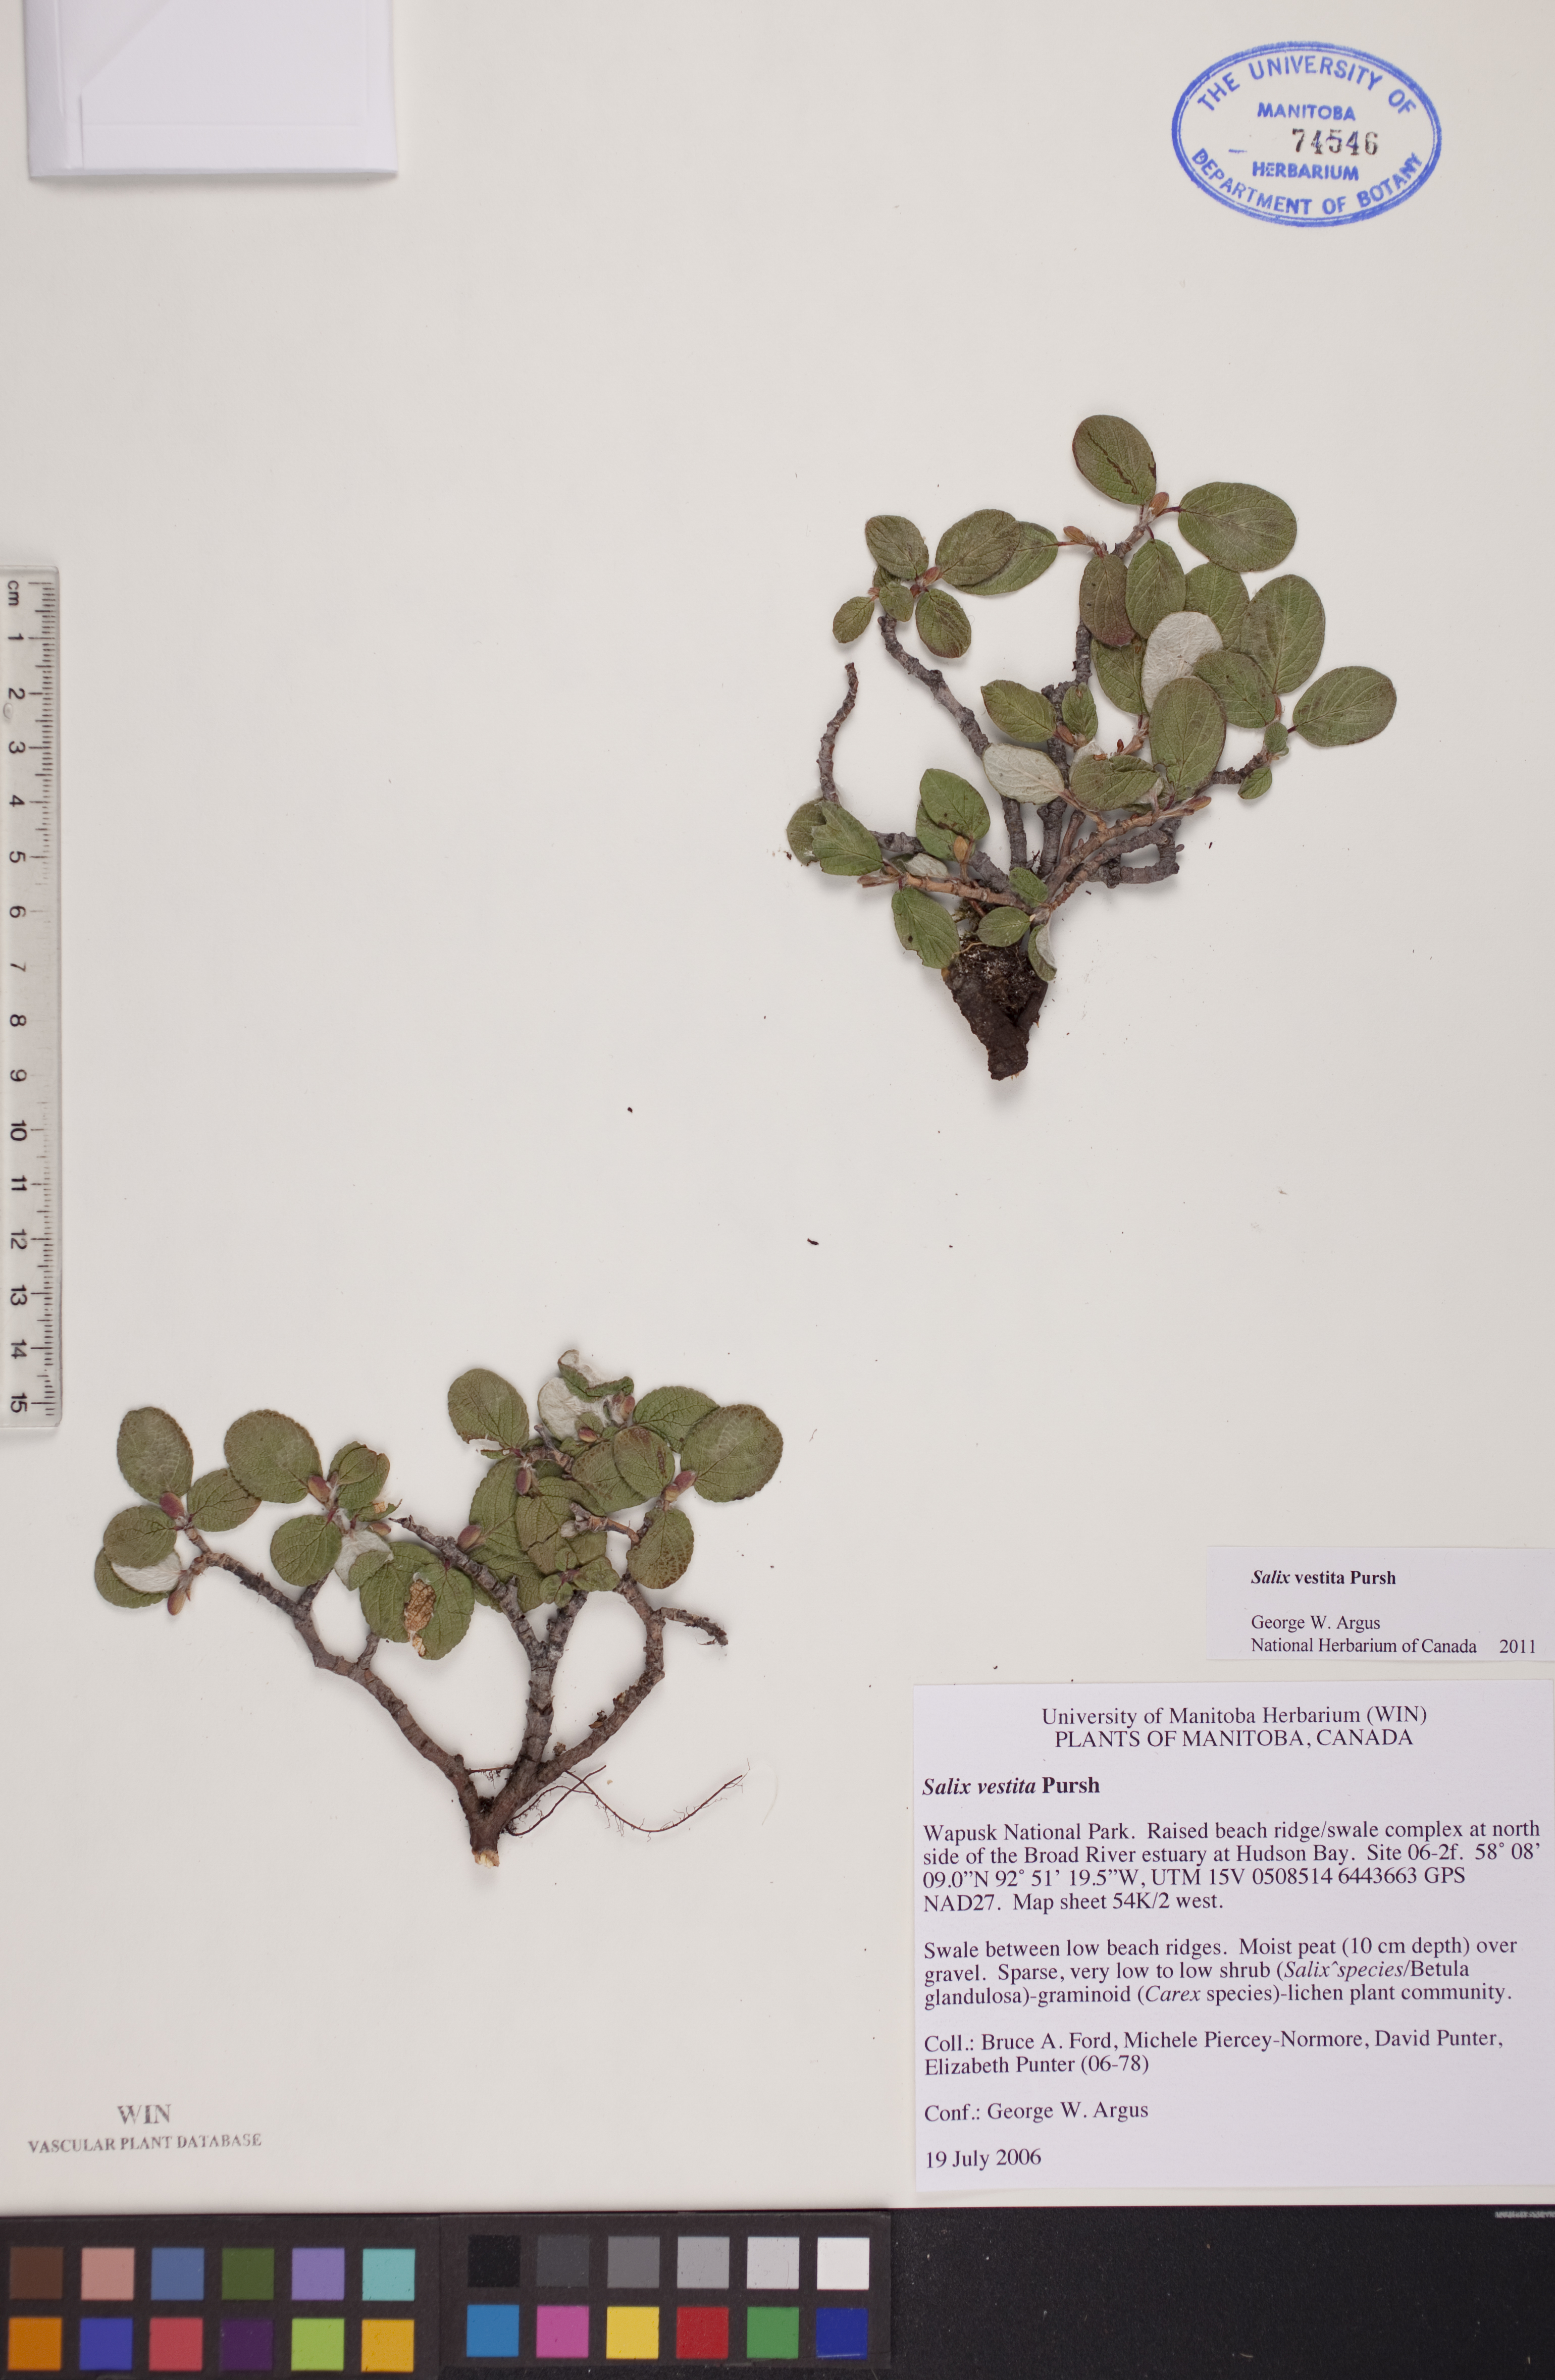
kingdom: Plantae
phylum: Tracheophyta
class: Magnoliopsida
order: Malpighiales
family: Salicaceae
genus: Salix
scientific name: Salix vestita
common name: Hairy willow
